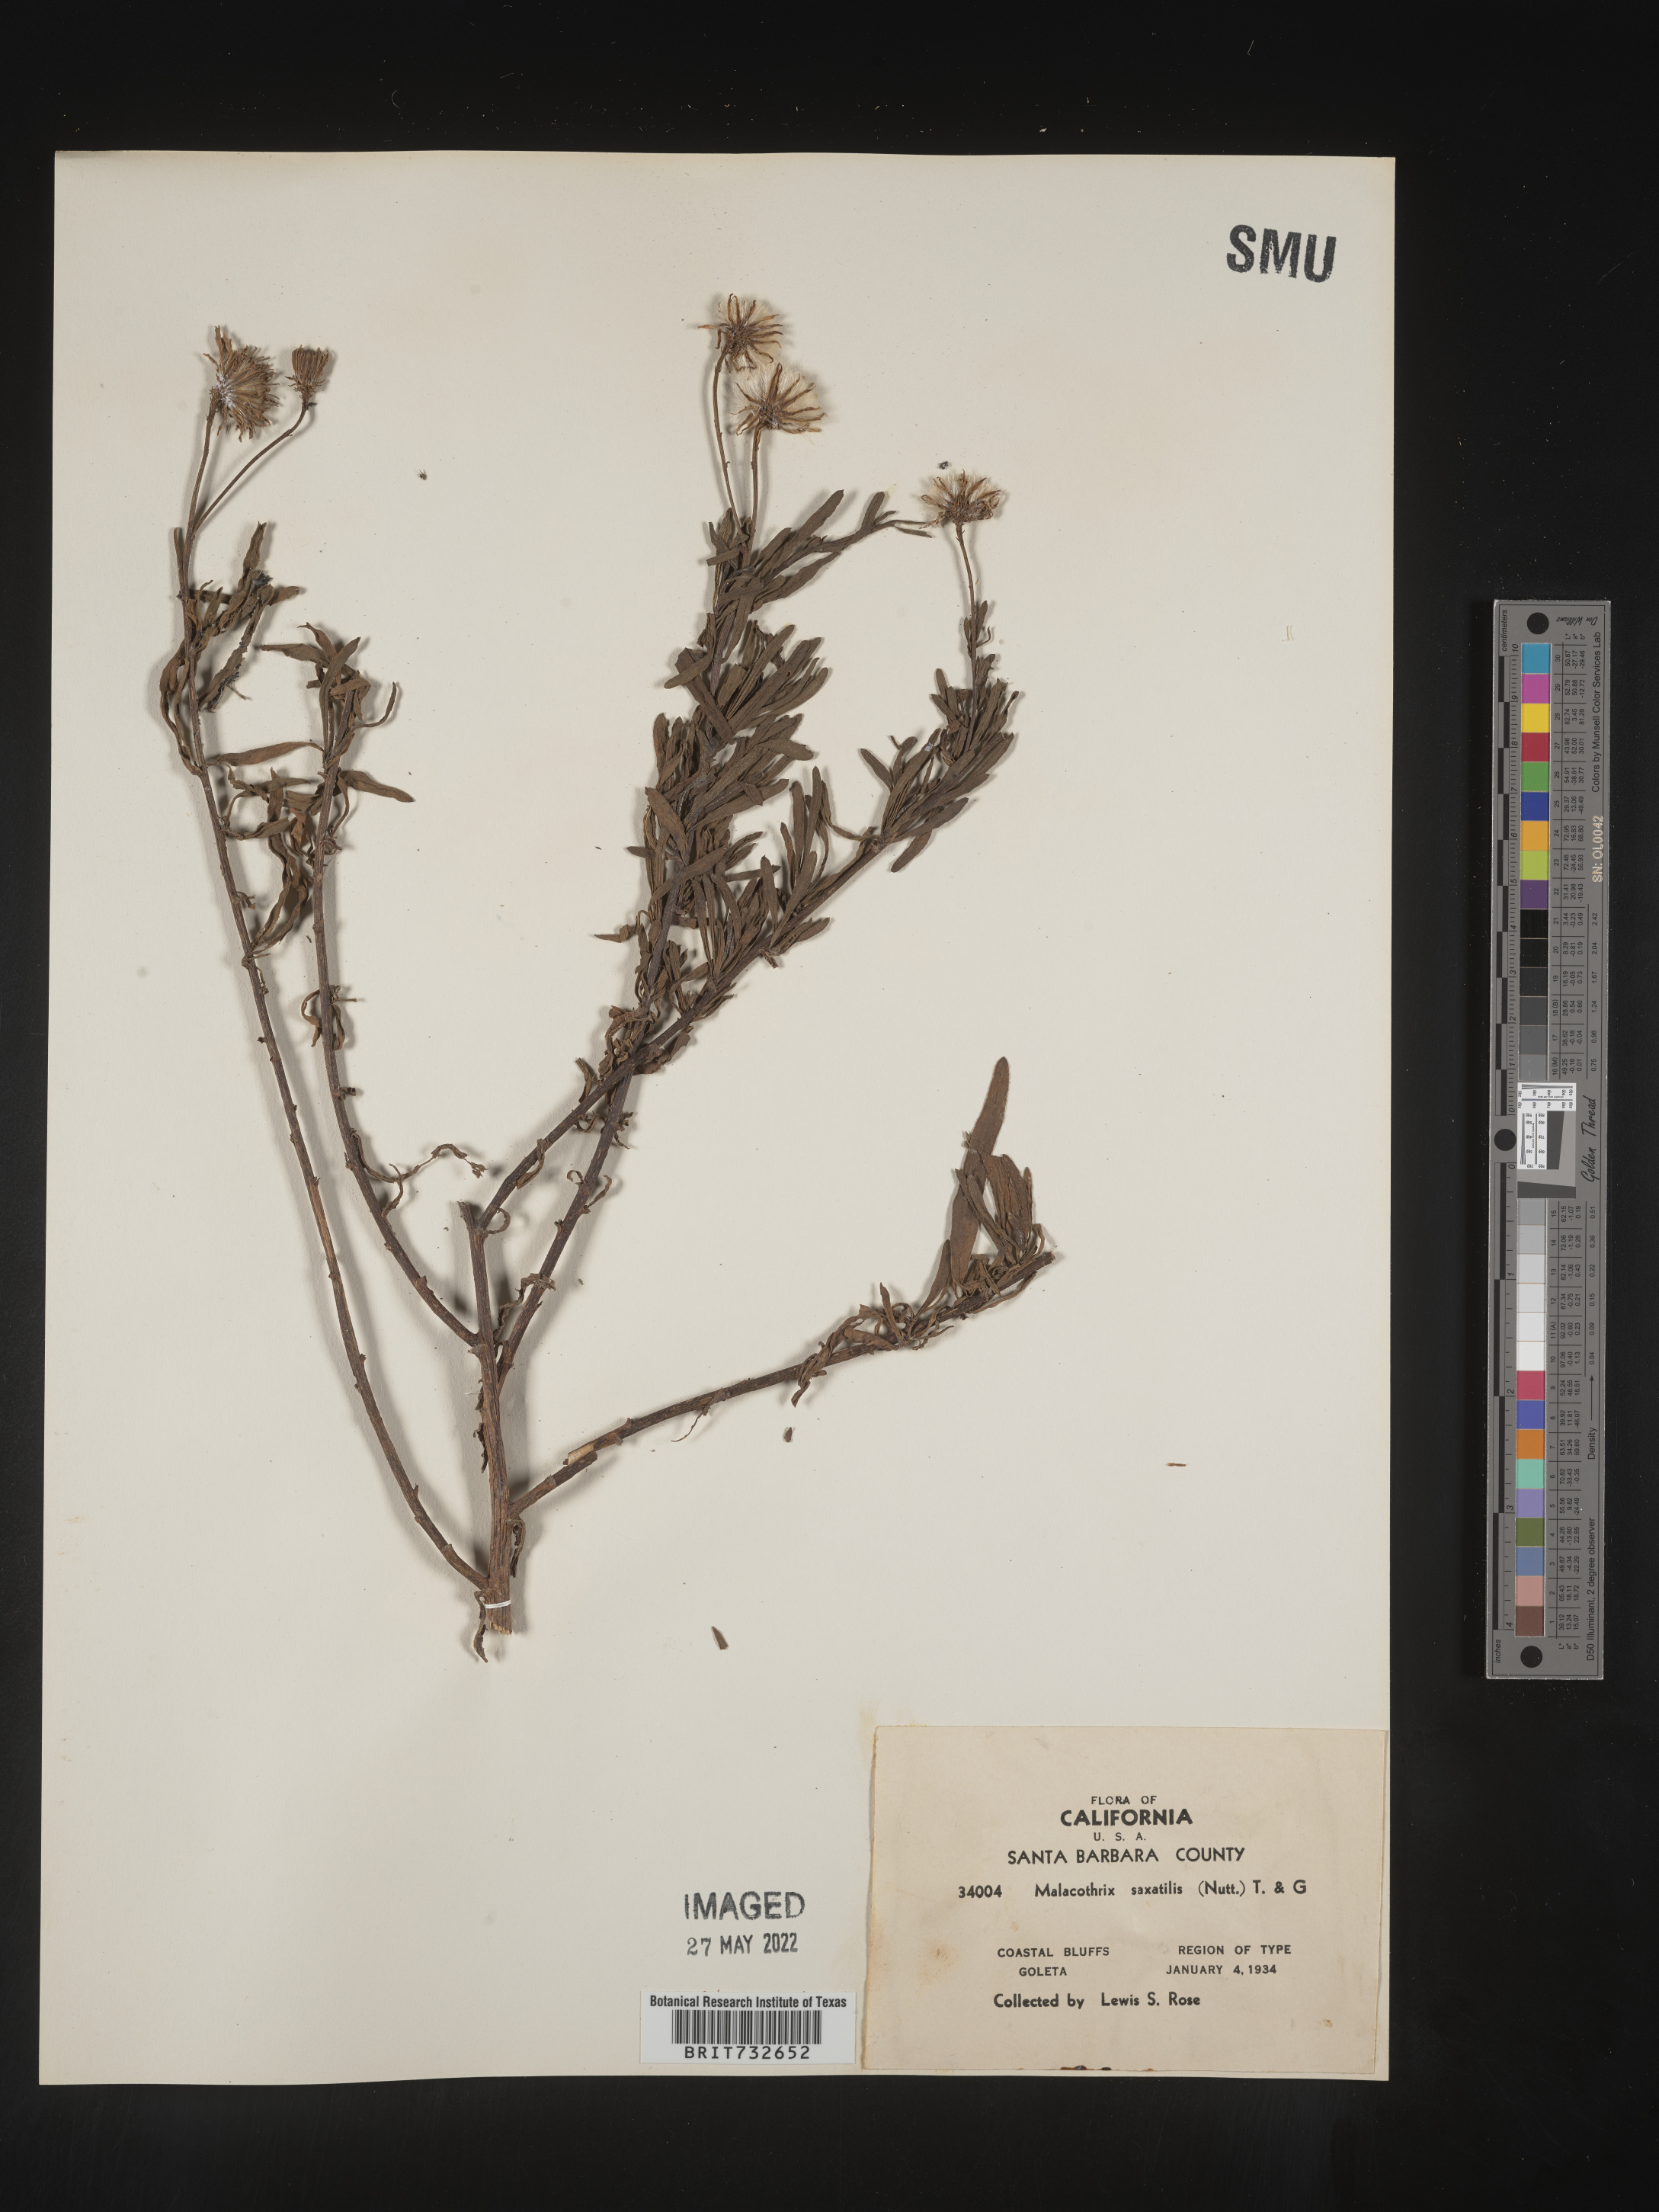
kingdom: Plantae
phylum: Tracheophyta
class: Magnoliopsida
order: Asterales
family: Asteraceae
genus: Malacothrix
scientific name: Malacothrix saxatilis
